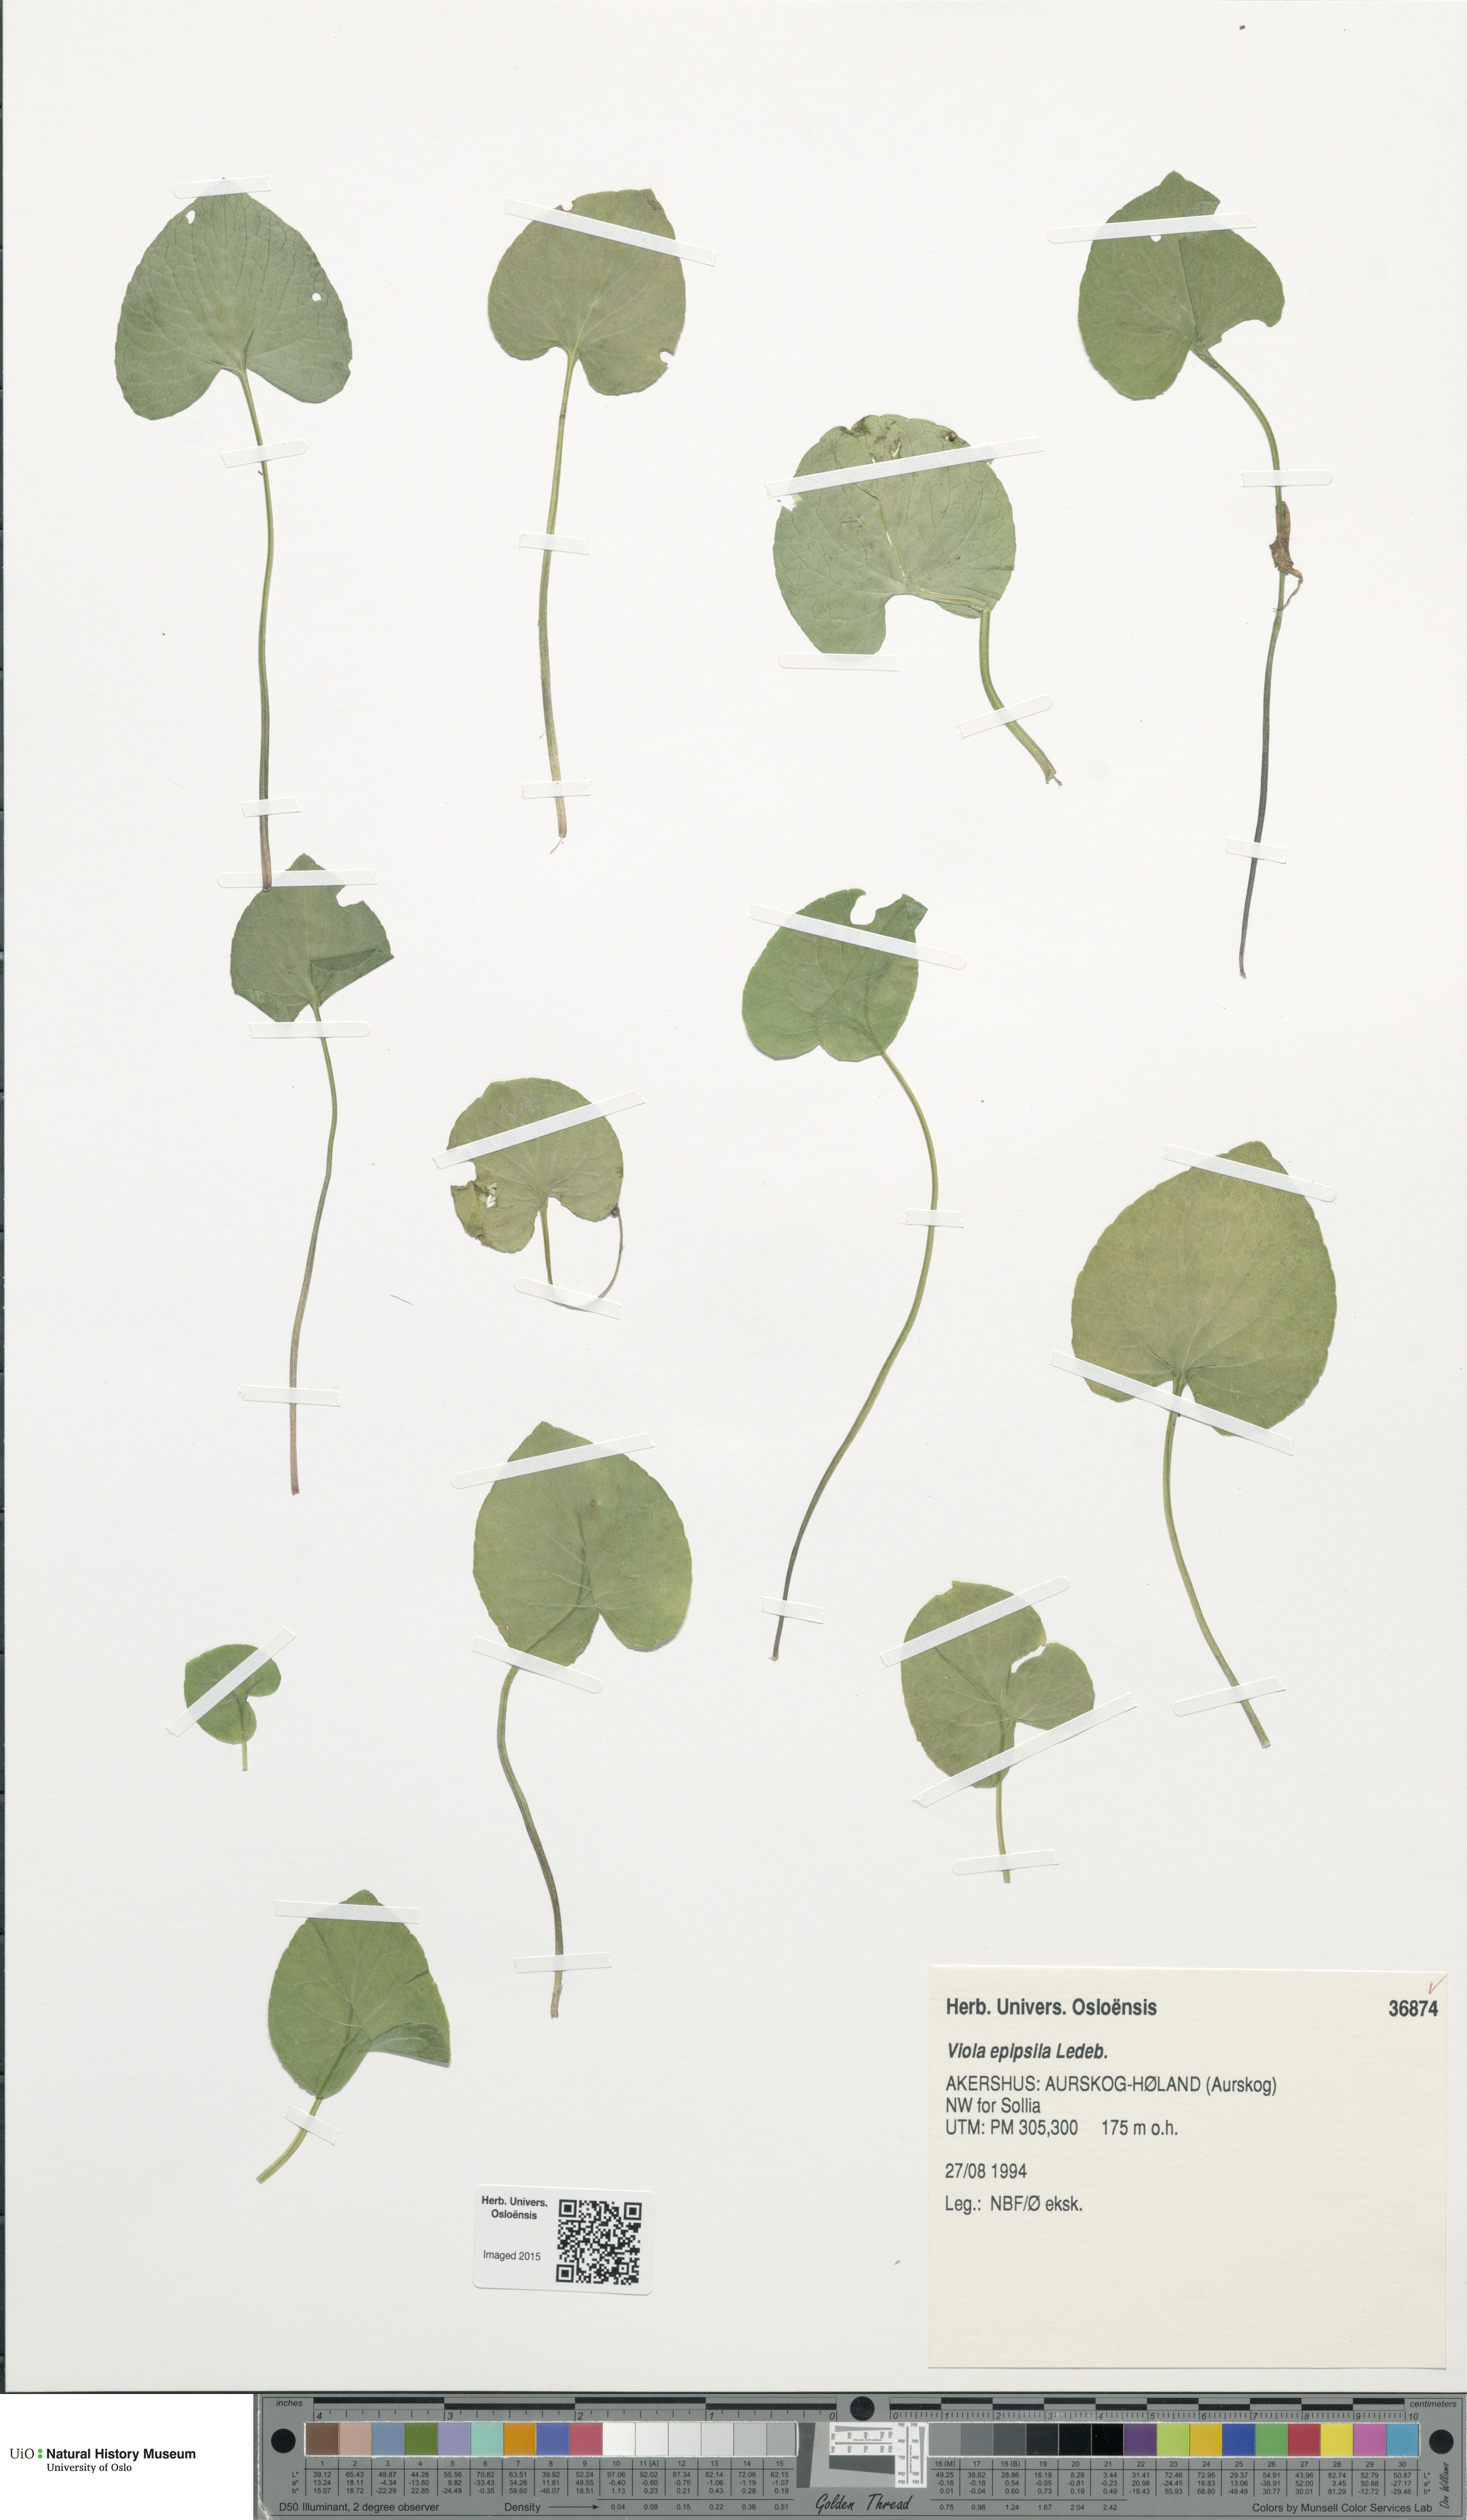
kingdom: Plantae
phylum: Tracheophyta
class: Magnoliopsida
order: Malpighiales
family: Violaceae
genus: Viola
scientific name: Viola epipsila
